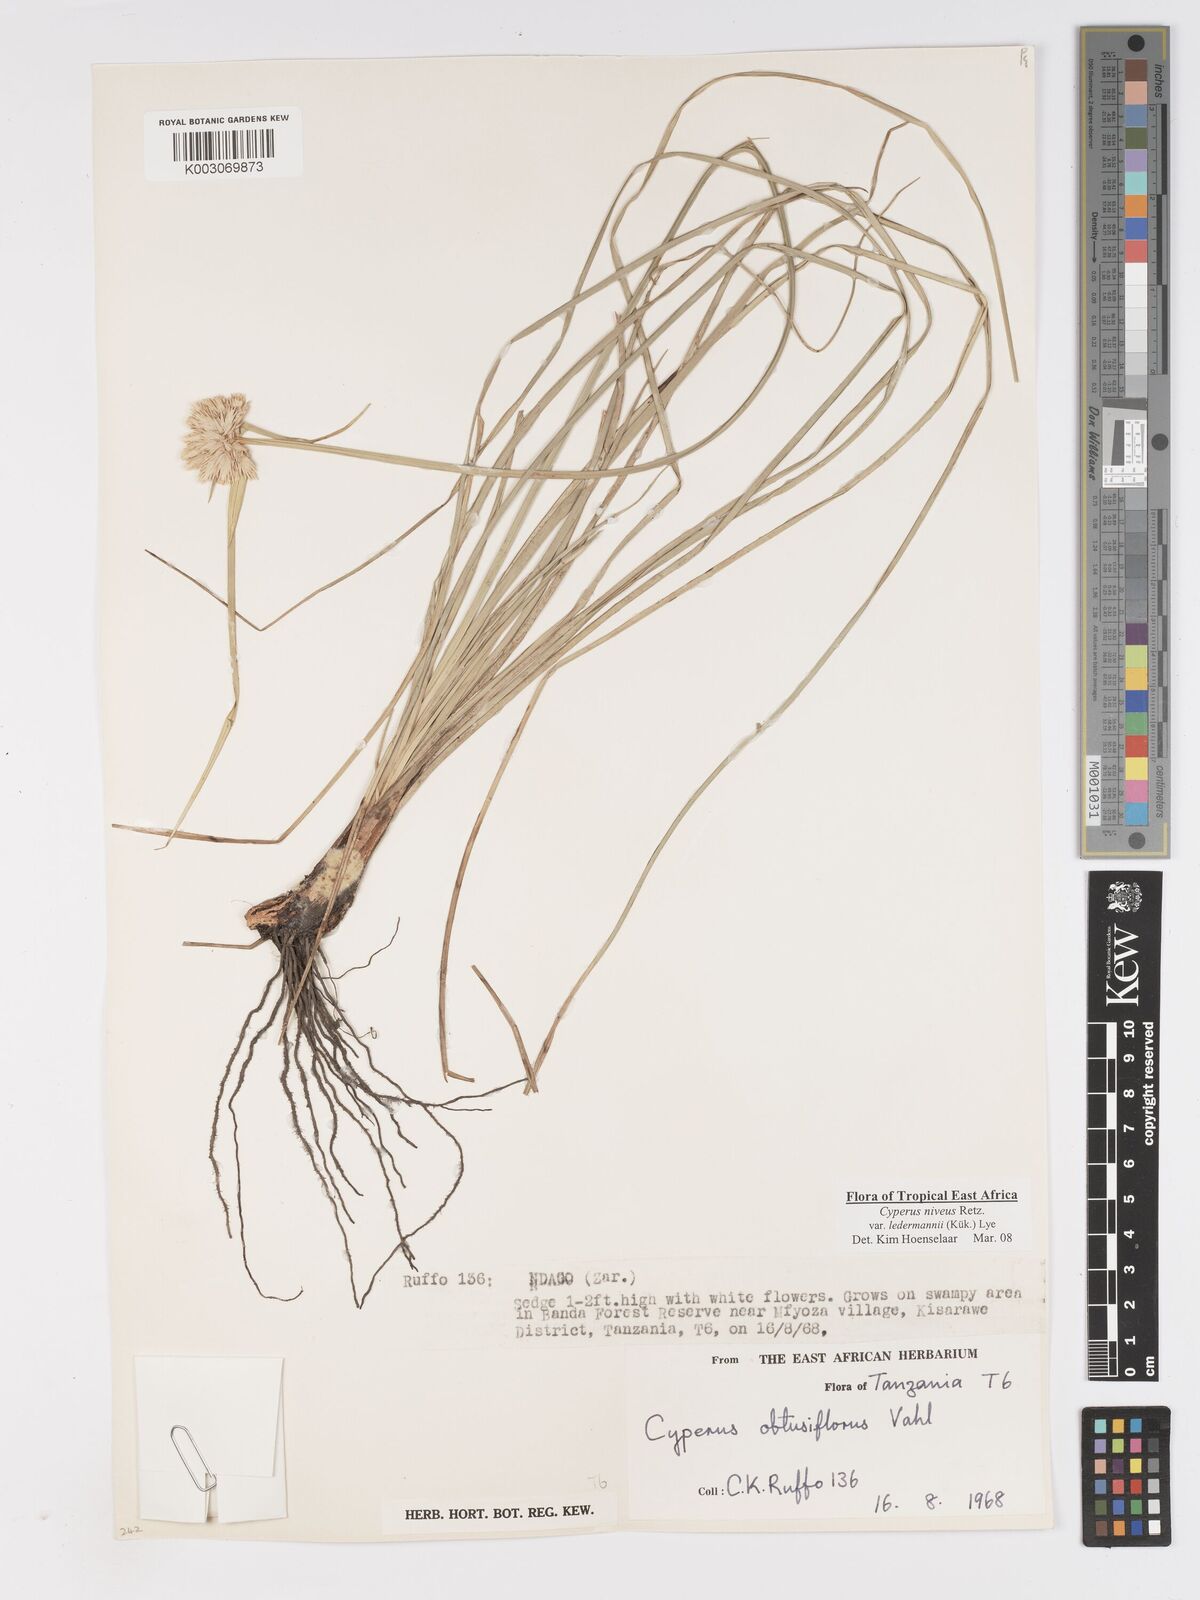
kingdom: Plantae
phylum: Tracheophyta
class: Liliopsida
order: Poales
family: Cyperaceae
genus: Cyperus
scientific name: Cyperus niveus
